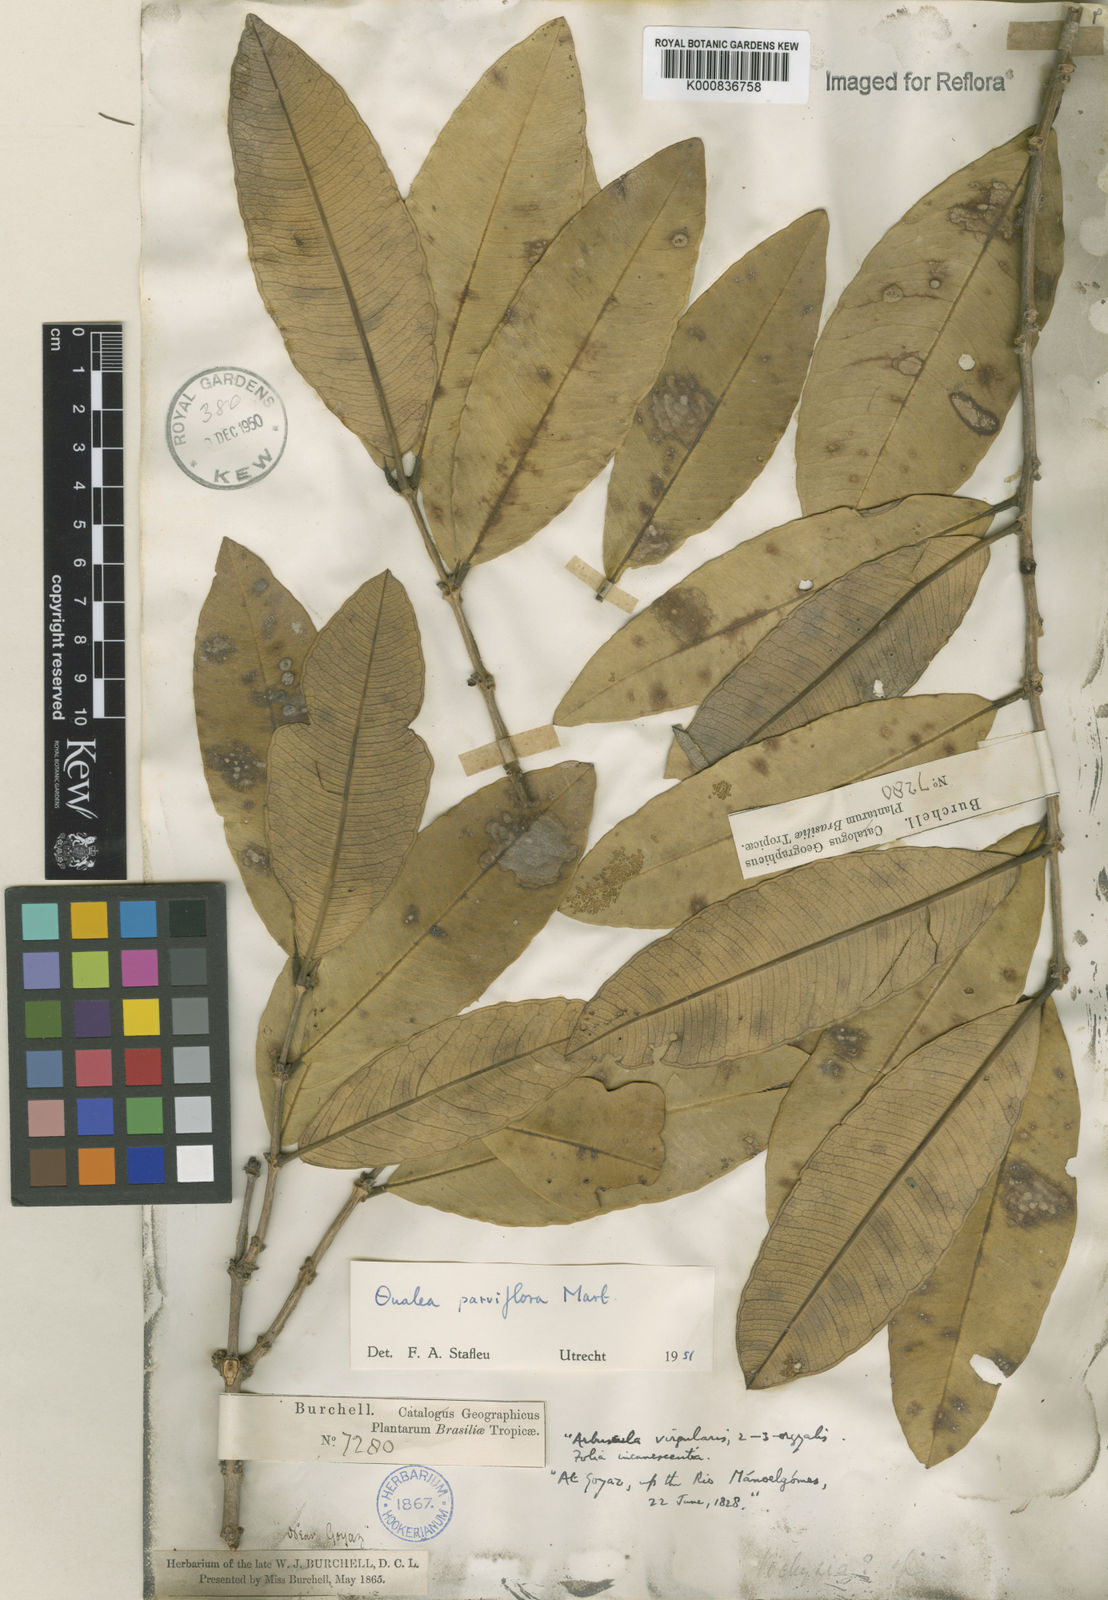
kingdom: Plantae
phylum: Tracheophyta
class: Magnoliopsida
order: Myrtales
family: Vochysiaceae
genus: Qualea
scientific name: Qualea parviflora
